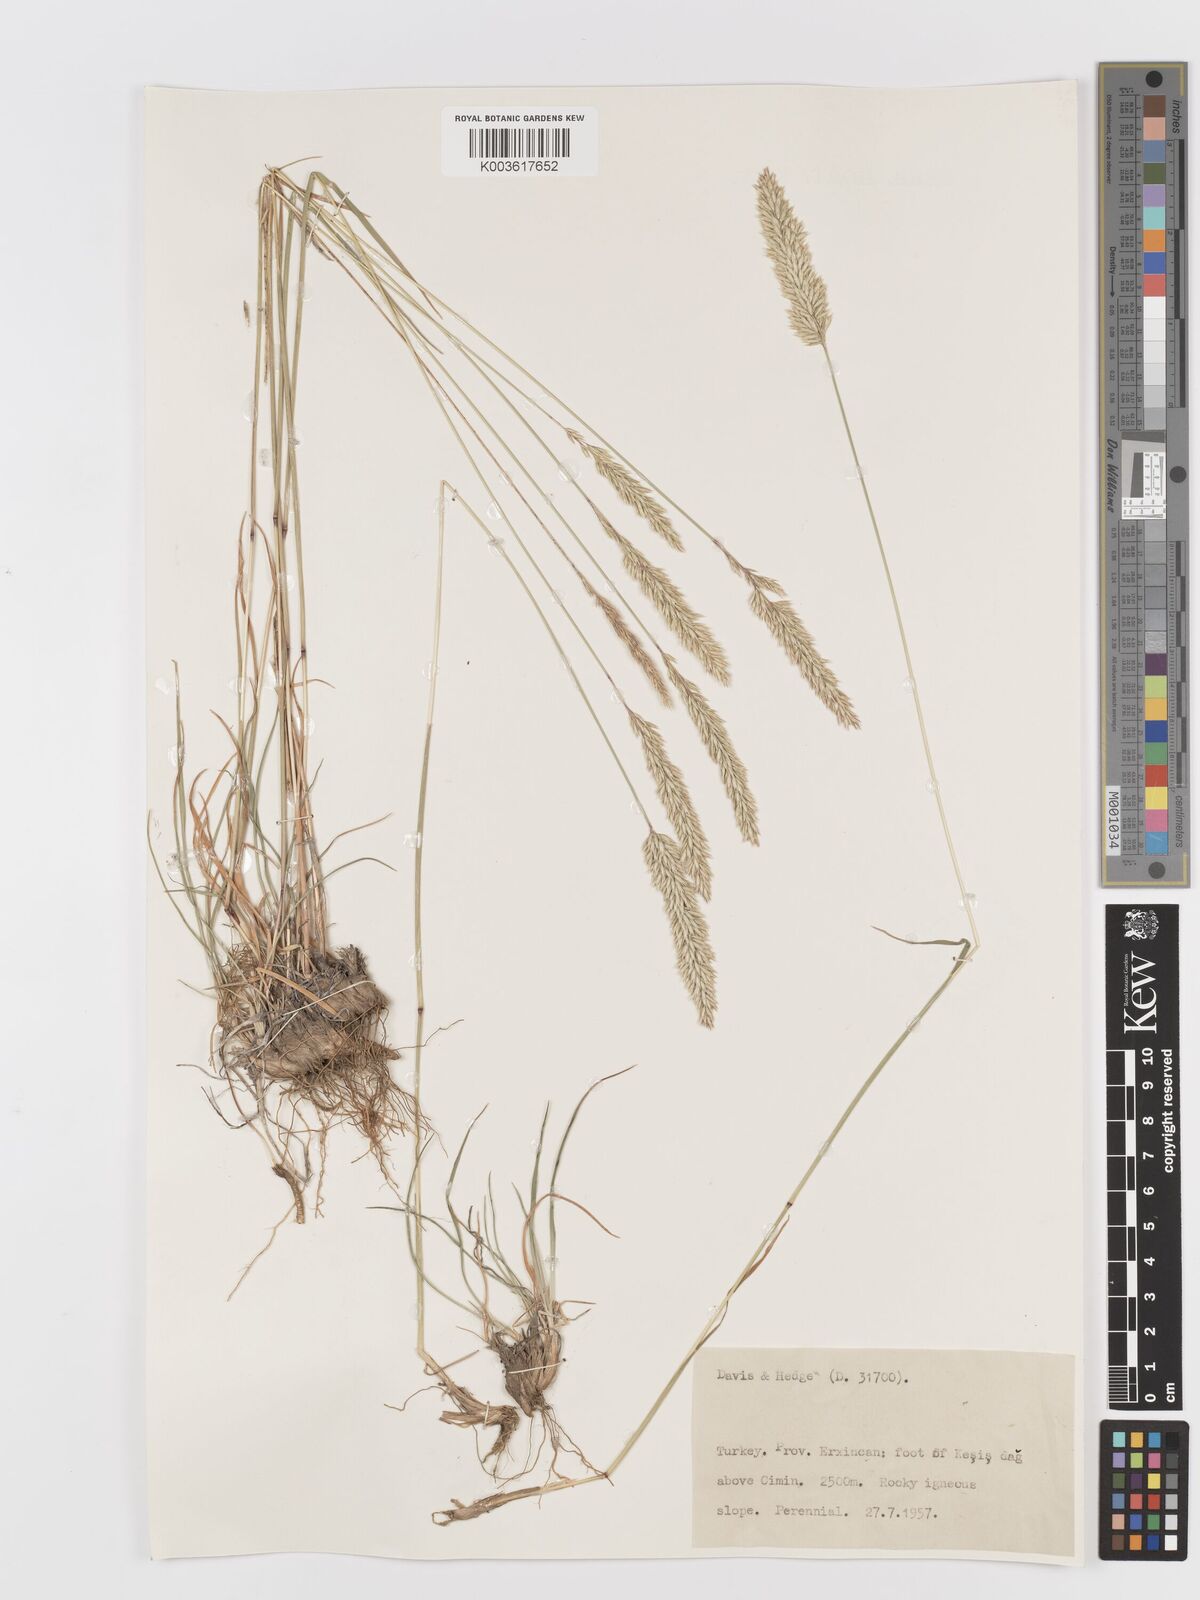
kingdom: Plantae
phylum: Tracheophyta
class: Liliopsida
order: Poales
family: Poaceae
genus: Koeleria
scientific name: Koeleria
